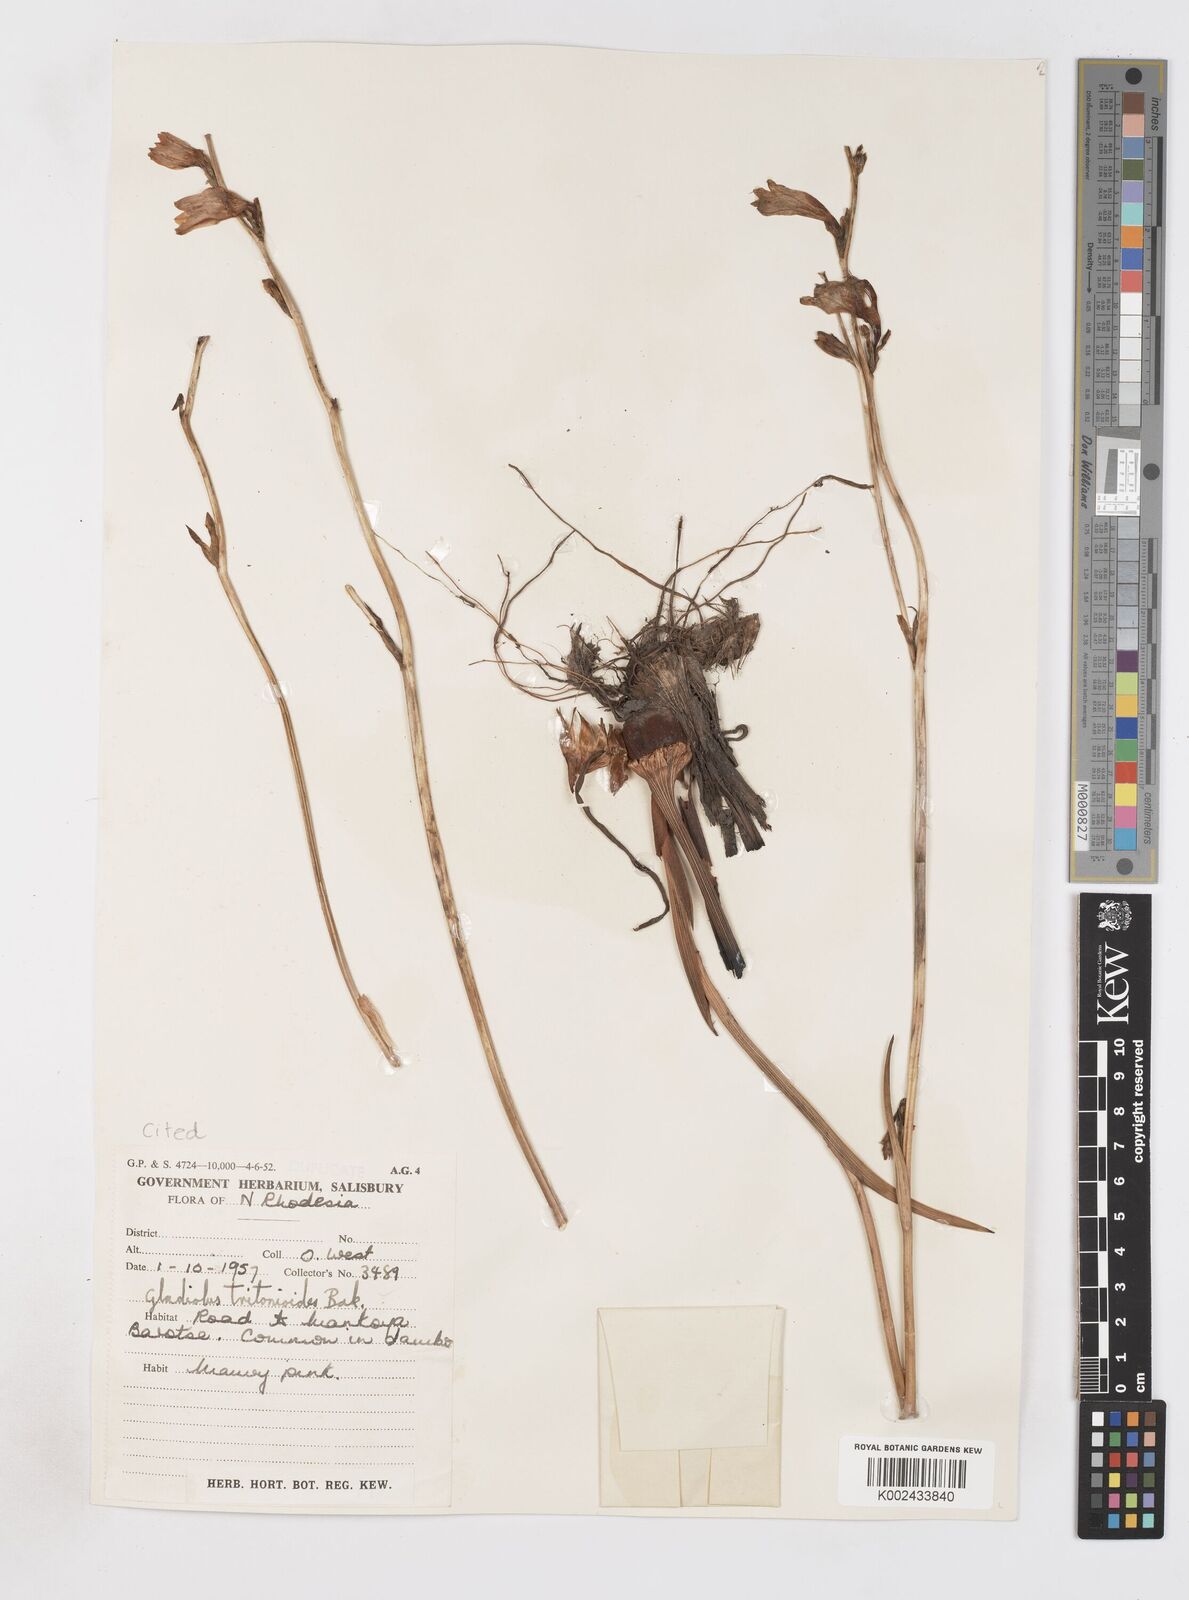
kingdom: Plantae
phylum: Tracheophyta
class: Liliopsida
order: Asparagales
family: Iridaceae
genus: Gladiolus
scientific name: Gladiolus laxiflorus
